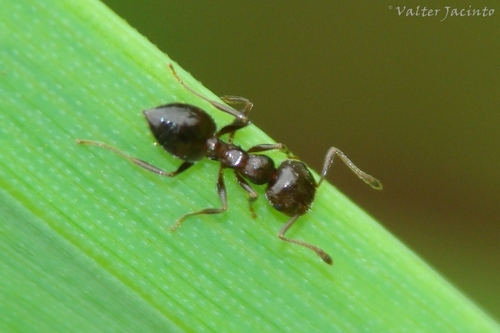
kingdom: Animalia
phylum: Arthropoda
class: Insecta
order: Hymenoptera
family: Formicidae
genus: Crematogaster
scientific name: Crematogaster sordidula
